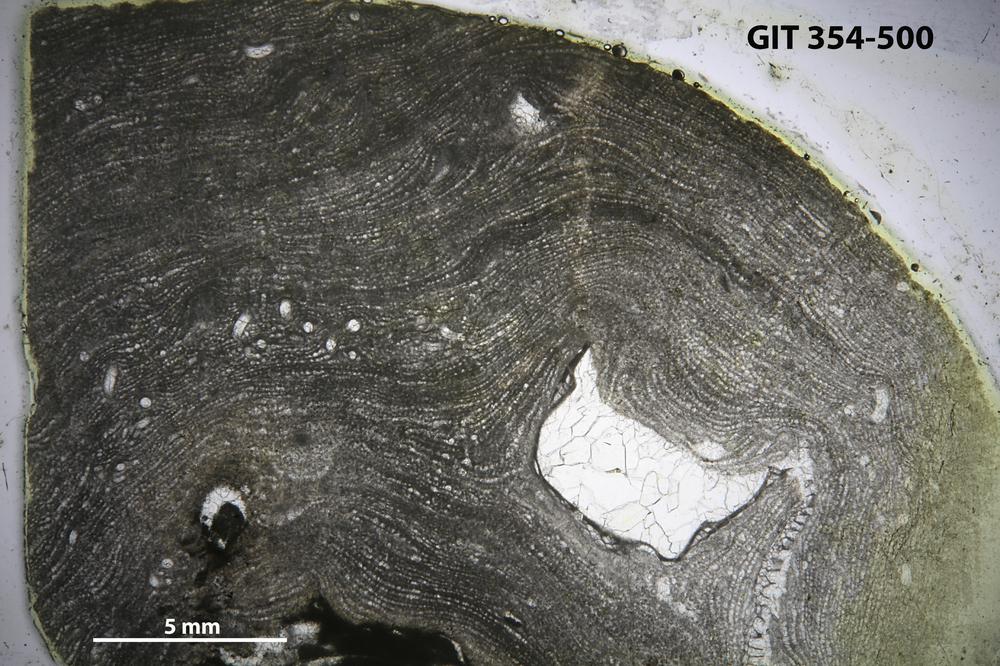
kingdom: Animalia
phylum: Porifera
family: Clathrodictyidae
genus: Clathrodictyon
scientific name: Clathrodictyon Stromatopora variolaris
